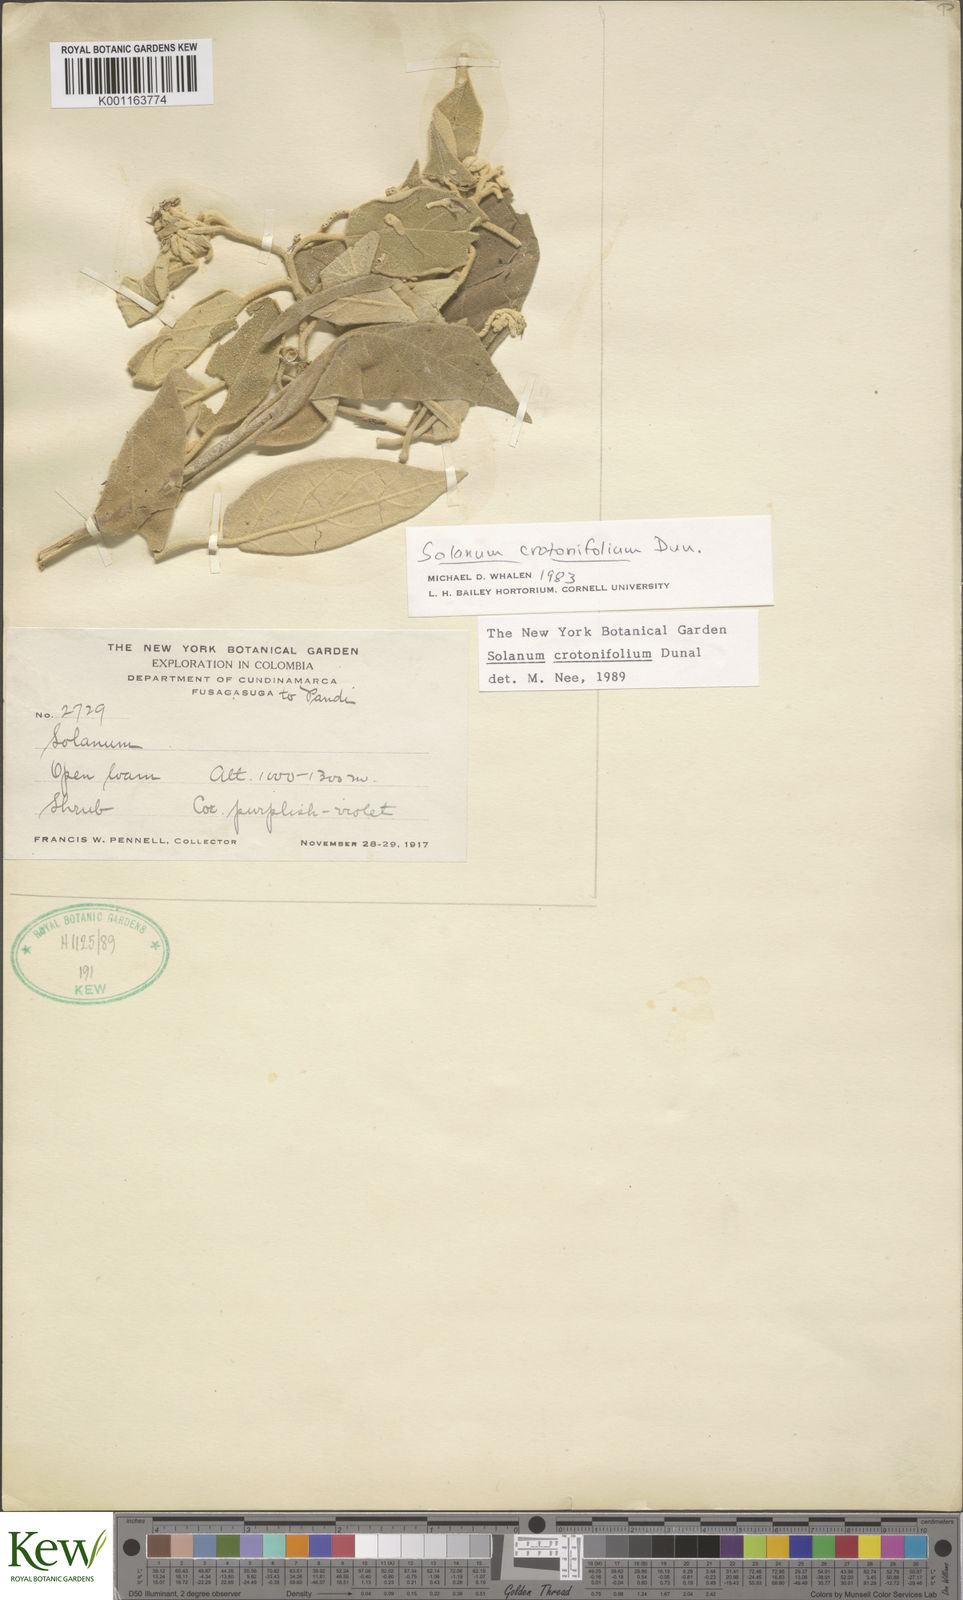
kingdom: Plantae
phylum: Tracheophyta
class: Magnoliopsida
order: Solanales
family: Solanaceae
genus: Solanum
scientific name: Solanum crotonifolium
